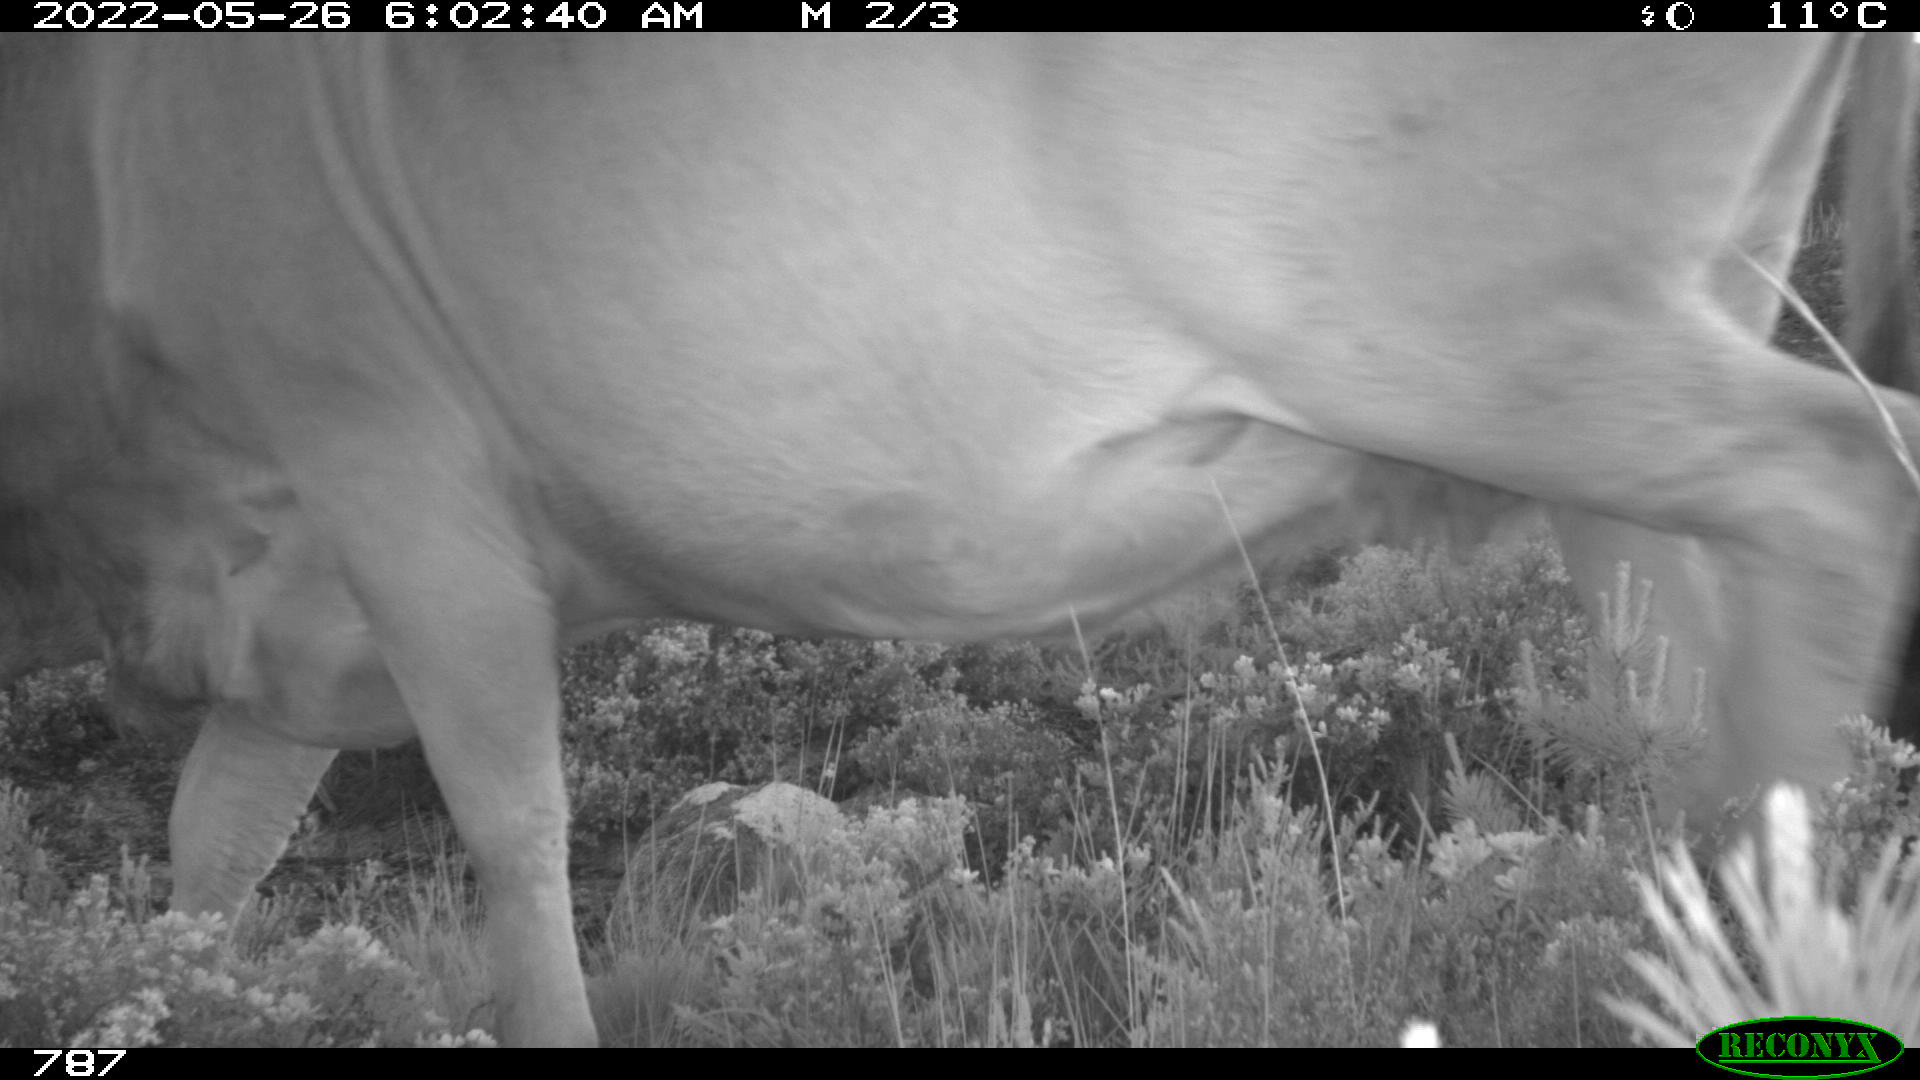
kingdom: Animalia
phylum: Chordata
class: Mammalia
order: Artiodactyla
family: Bovidae
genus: Bos
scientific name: Bos taurus
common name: Domesticated cattle
